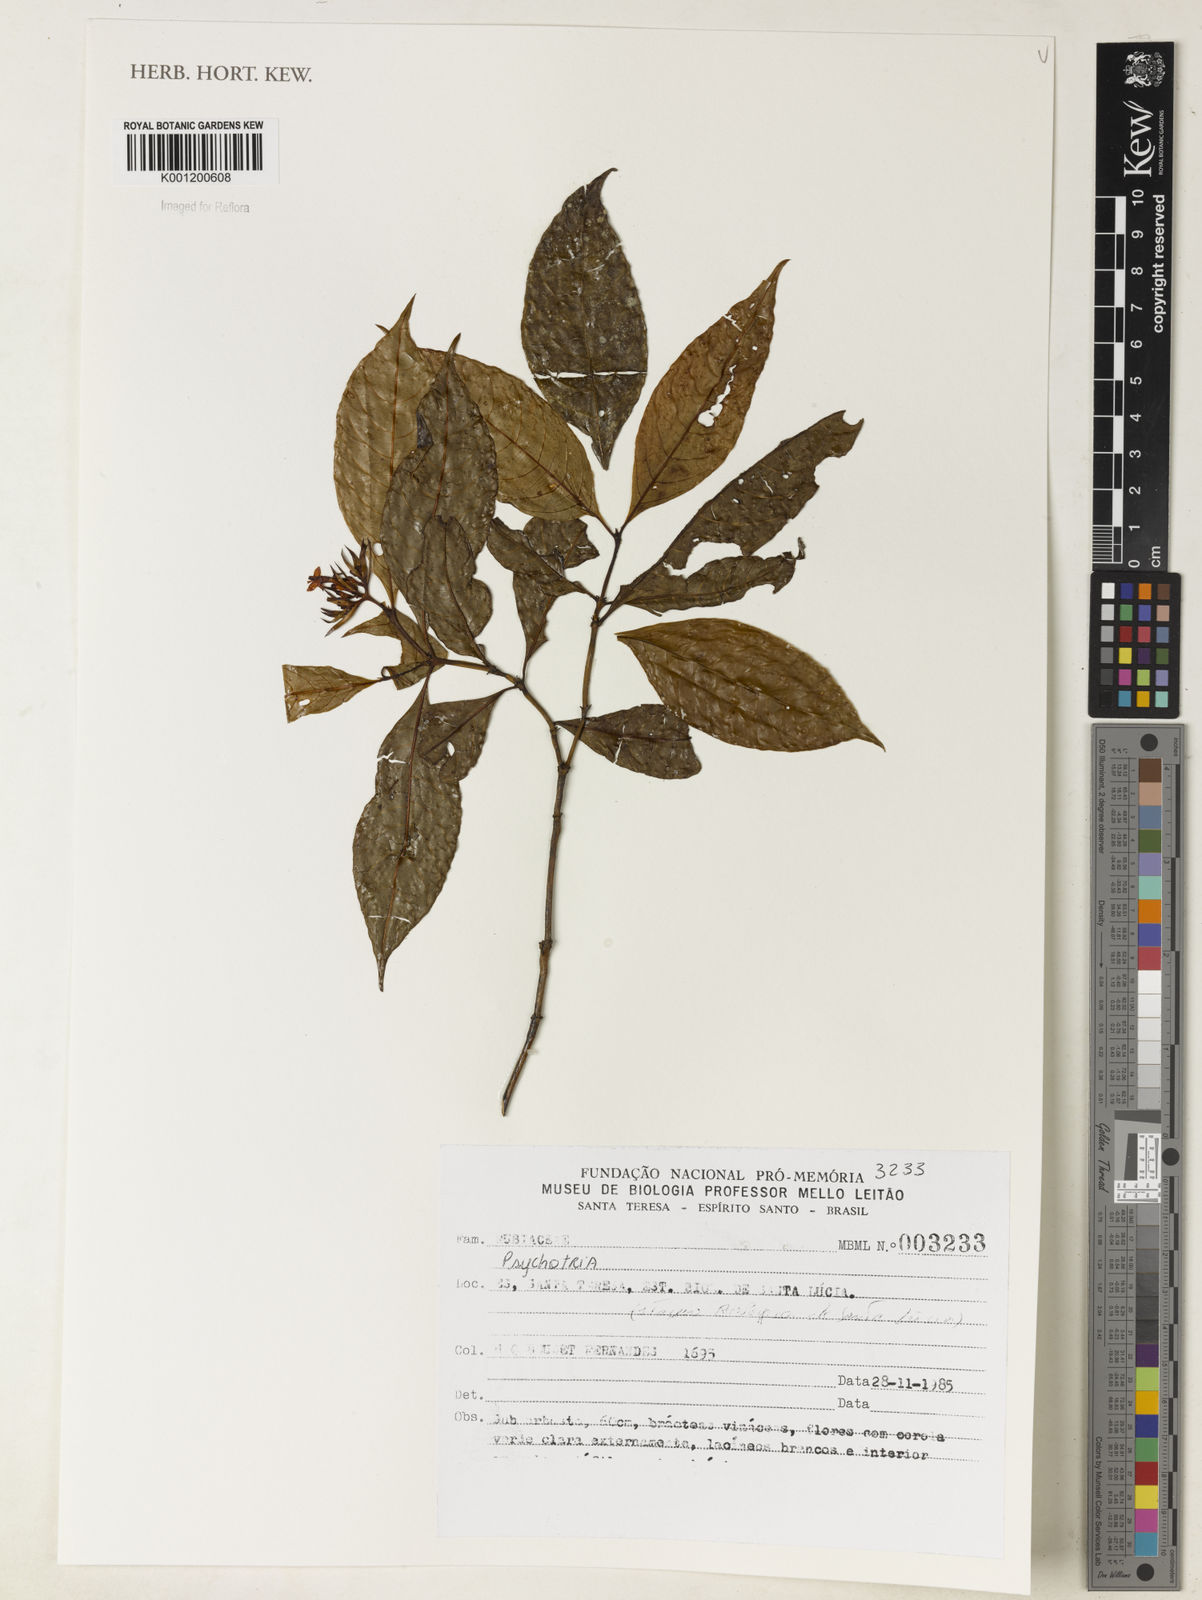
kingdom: Plantae
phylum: Tracheophyta
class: Magnoliopsida
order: Gentianales
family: Rubiaceae
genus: Psychotria
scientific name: Psychotria
